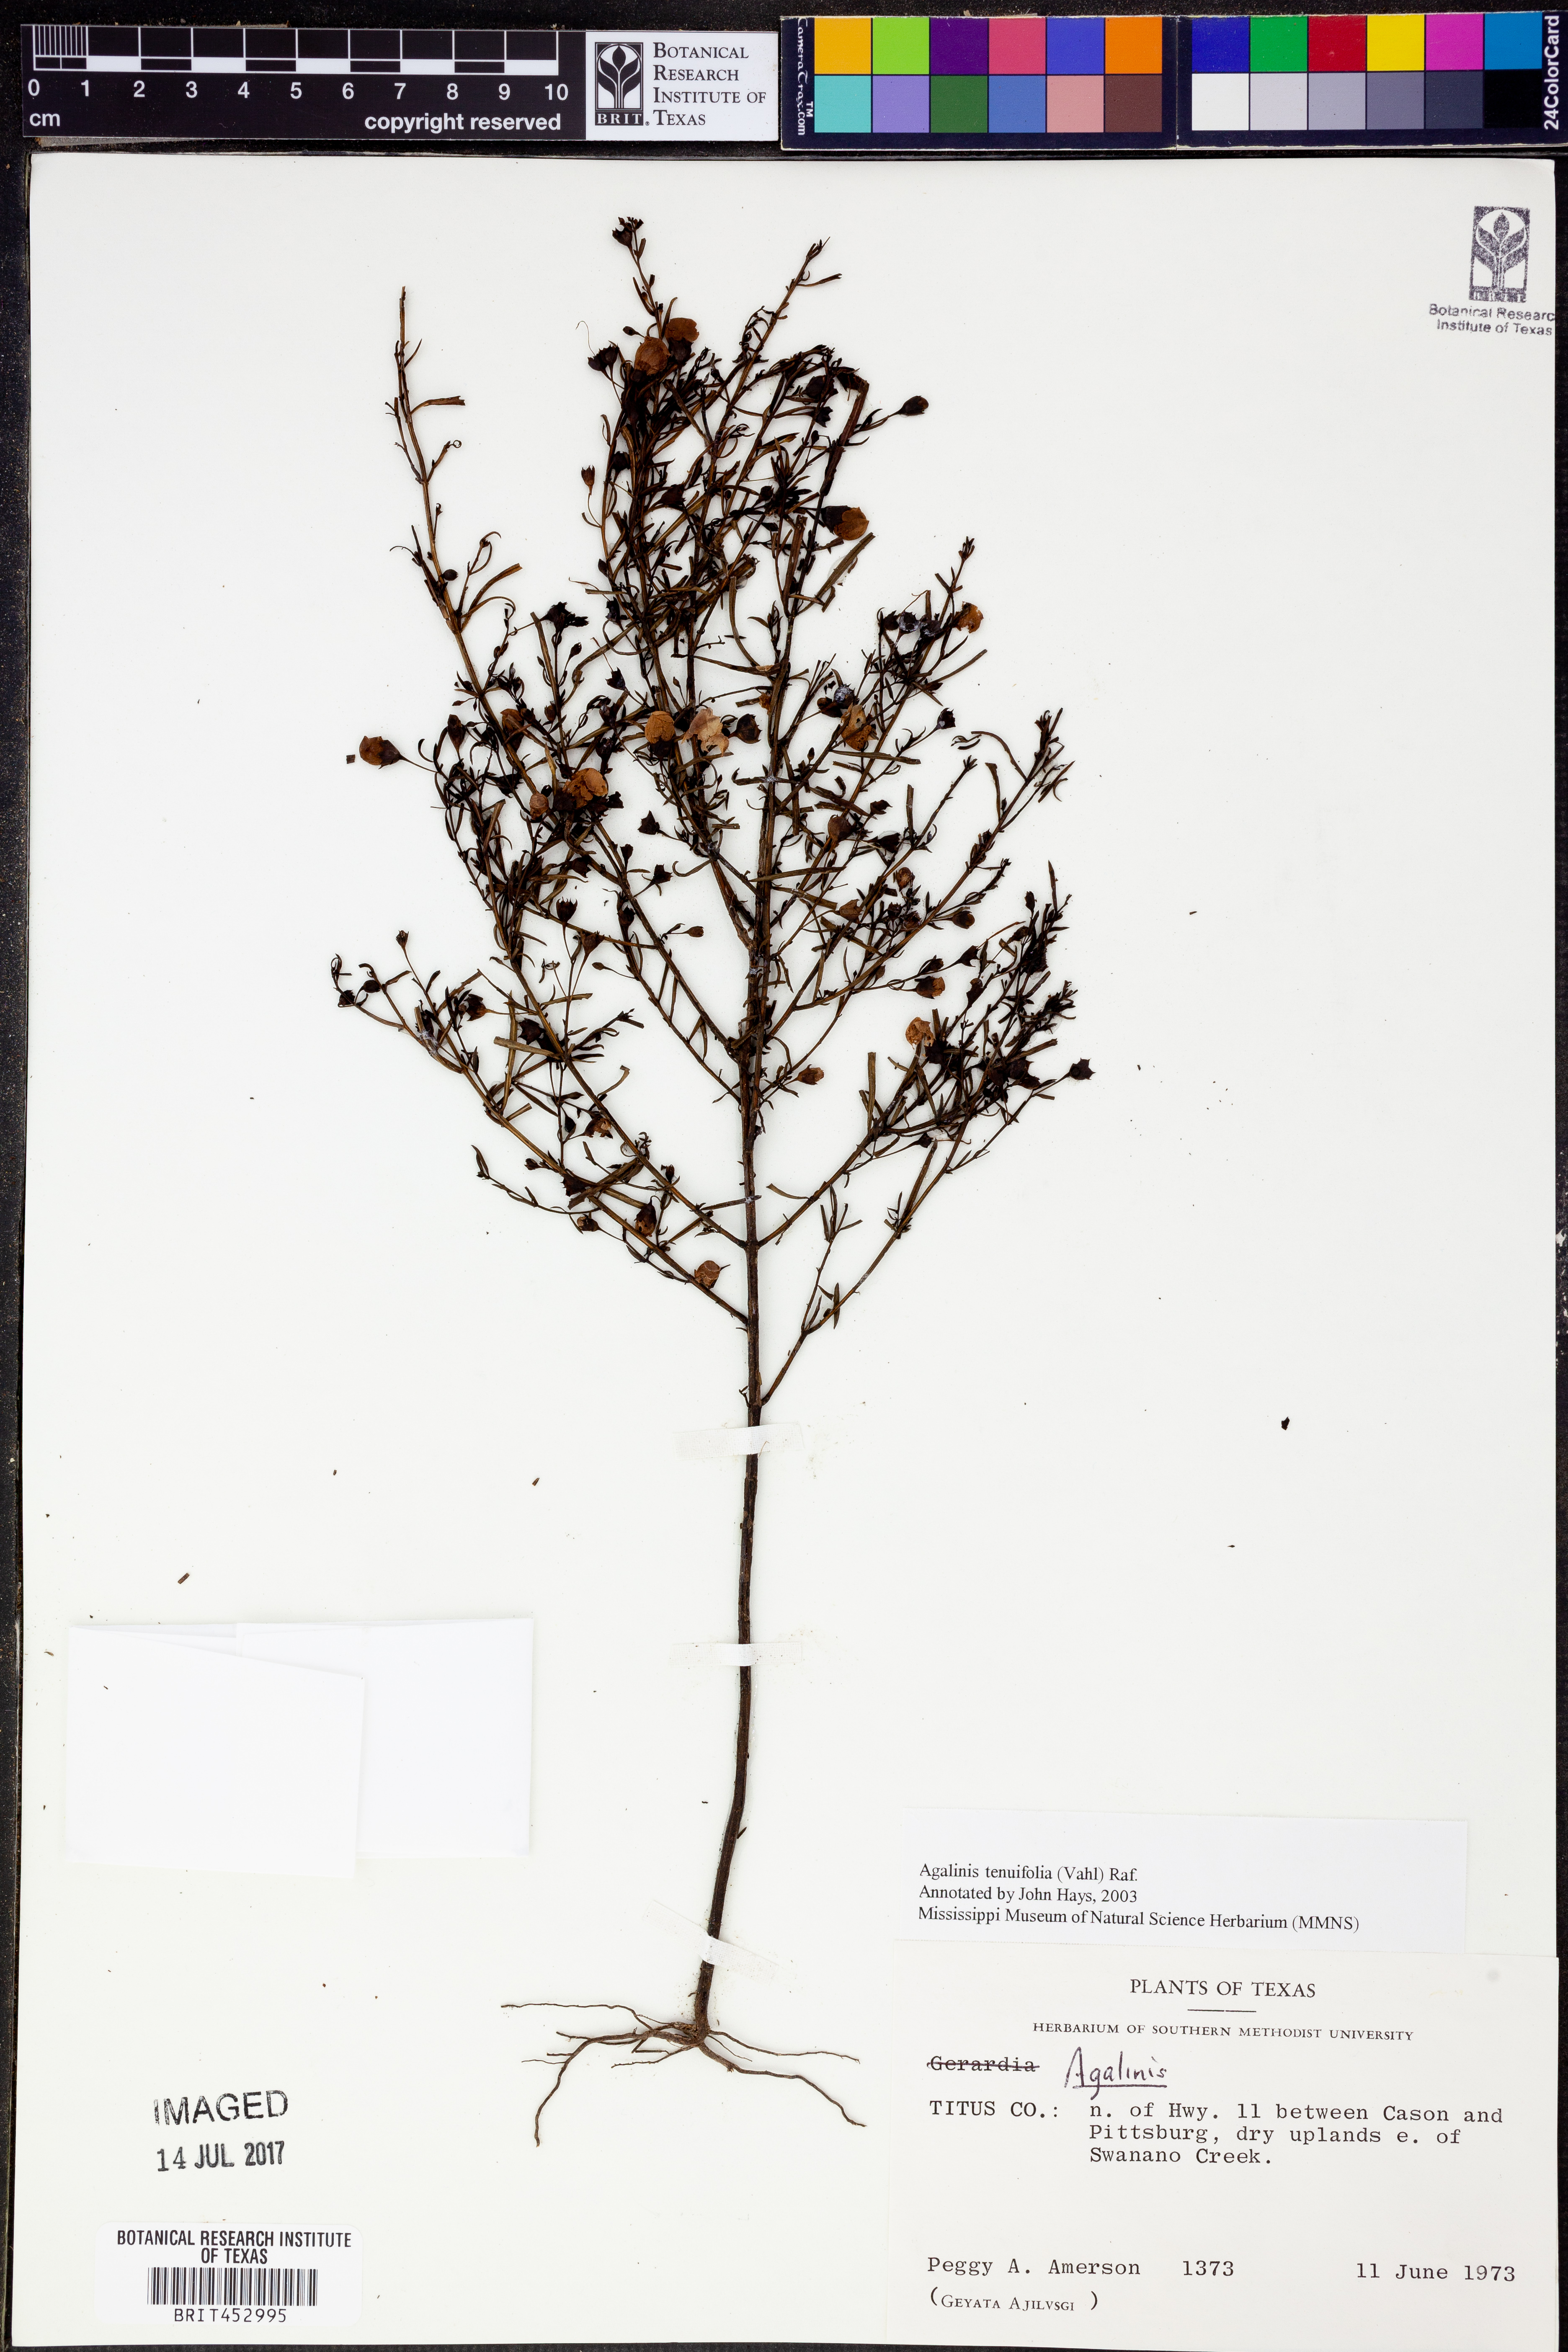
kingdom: Plantae
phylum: Tracheophyta
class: Magnoliopsida
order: Lamiales
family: Orobanchaceae
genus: Agalinis
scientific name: Agalinis tenuifolia
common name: Slender agalinis
